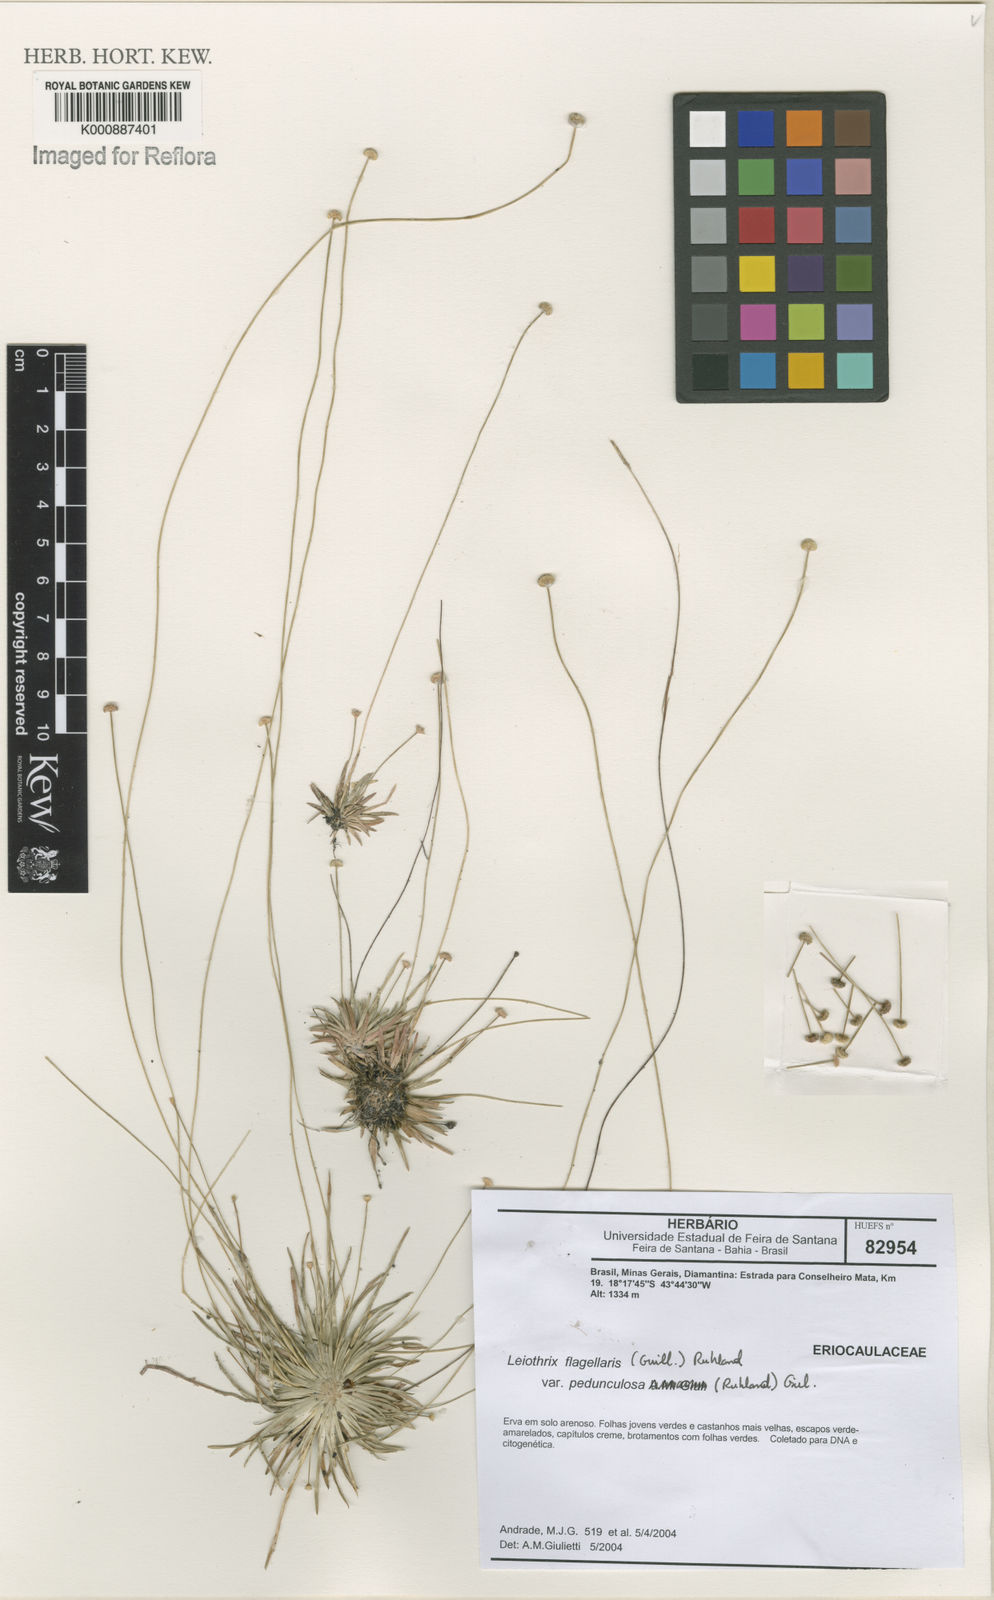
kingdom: Plantae
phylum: Tracheophyta
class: Liliopsida
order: Poales
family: Eriocaulaceae
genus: Leiothrix
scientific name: Leiothrix flagellaris
